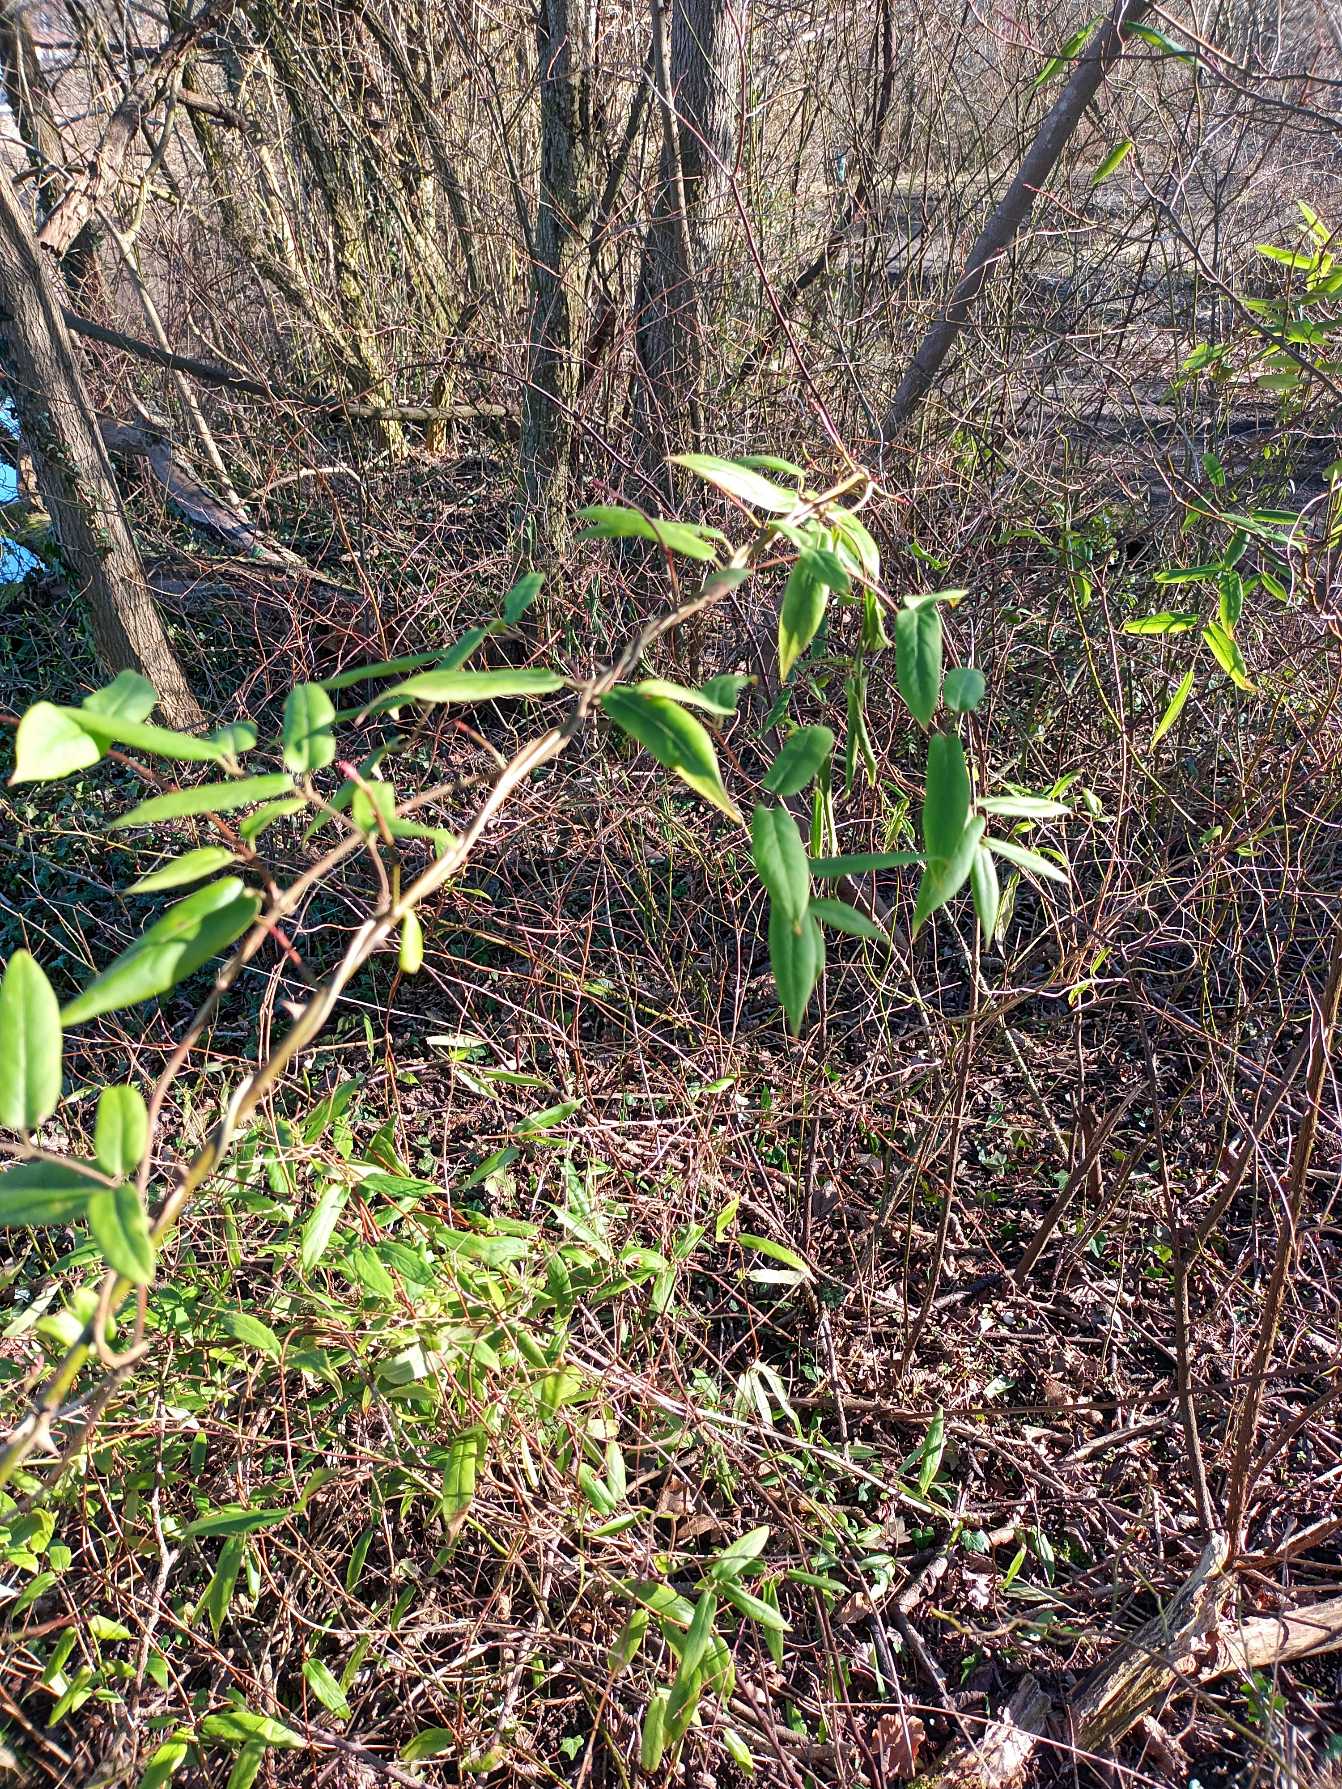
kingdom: Plantae
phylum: Tracheophyta
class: Magnoliopsida
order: Dipsacales
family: Caprifoliaceae
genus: Lonicera
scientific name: Lonicera acuminata
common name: Henrys gedeblad
